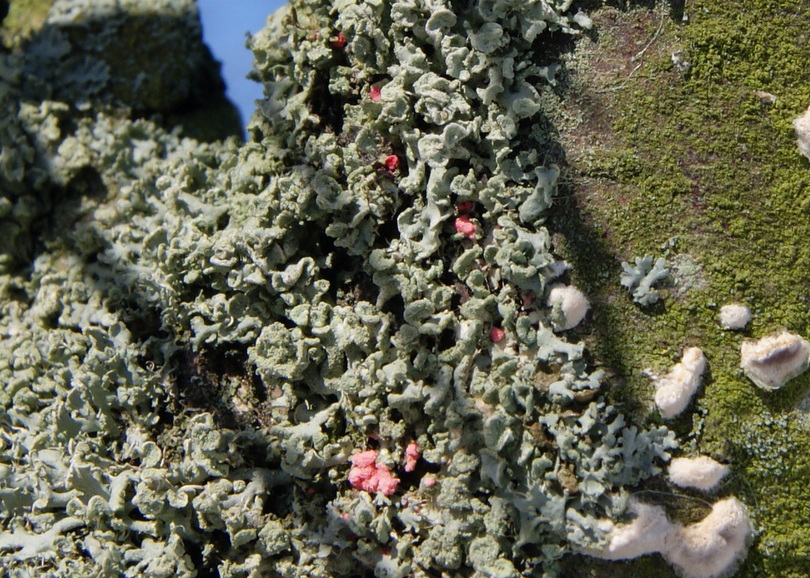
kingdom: Fungi
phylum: Ascomycota
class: Sordariomycetes
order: Hypocreales
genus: Illosporiopsis
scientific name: Illosporiopsis christiansenii
